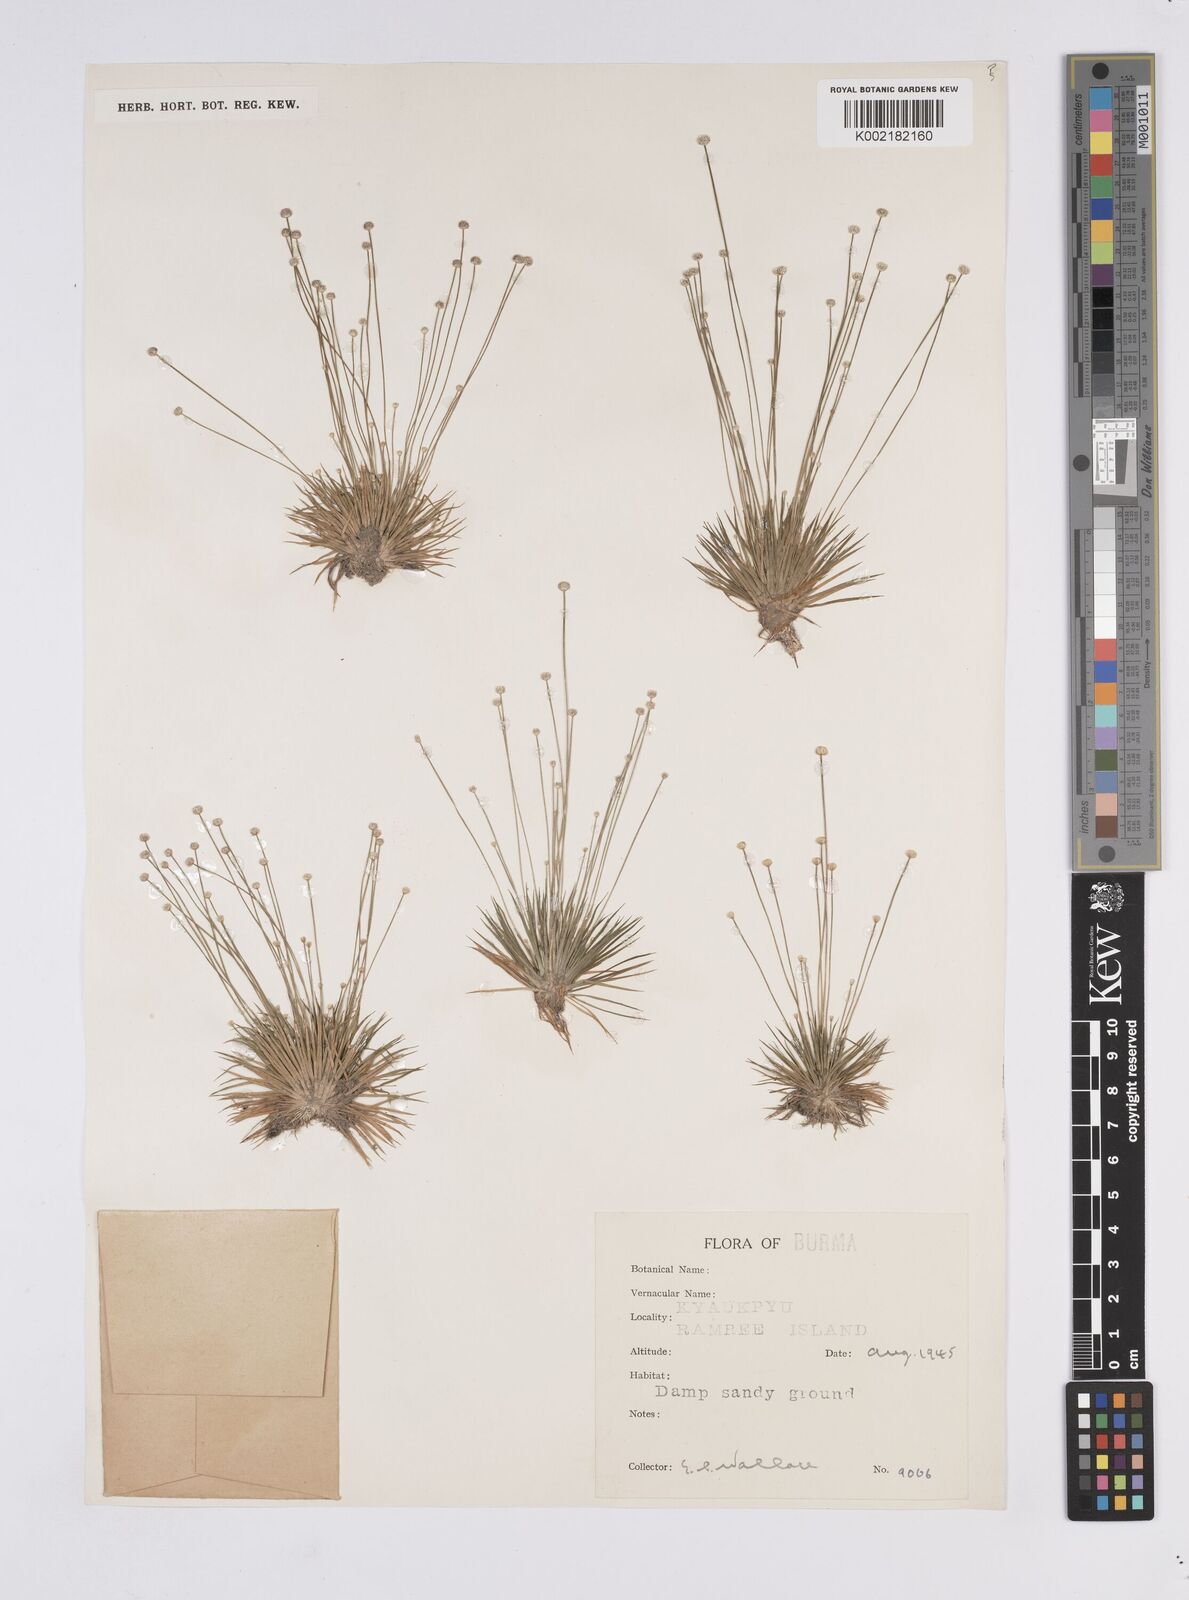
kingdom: Plantae
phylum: Tracheophyta
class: Liliopsida
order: Poales
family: Eriocaulaceae
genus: Eriocaulon
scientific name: Eriocaulon
